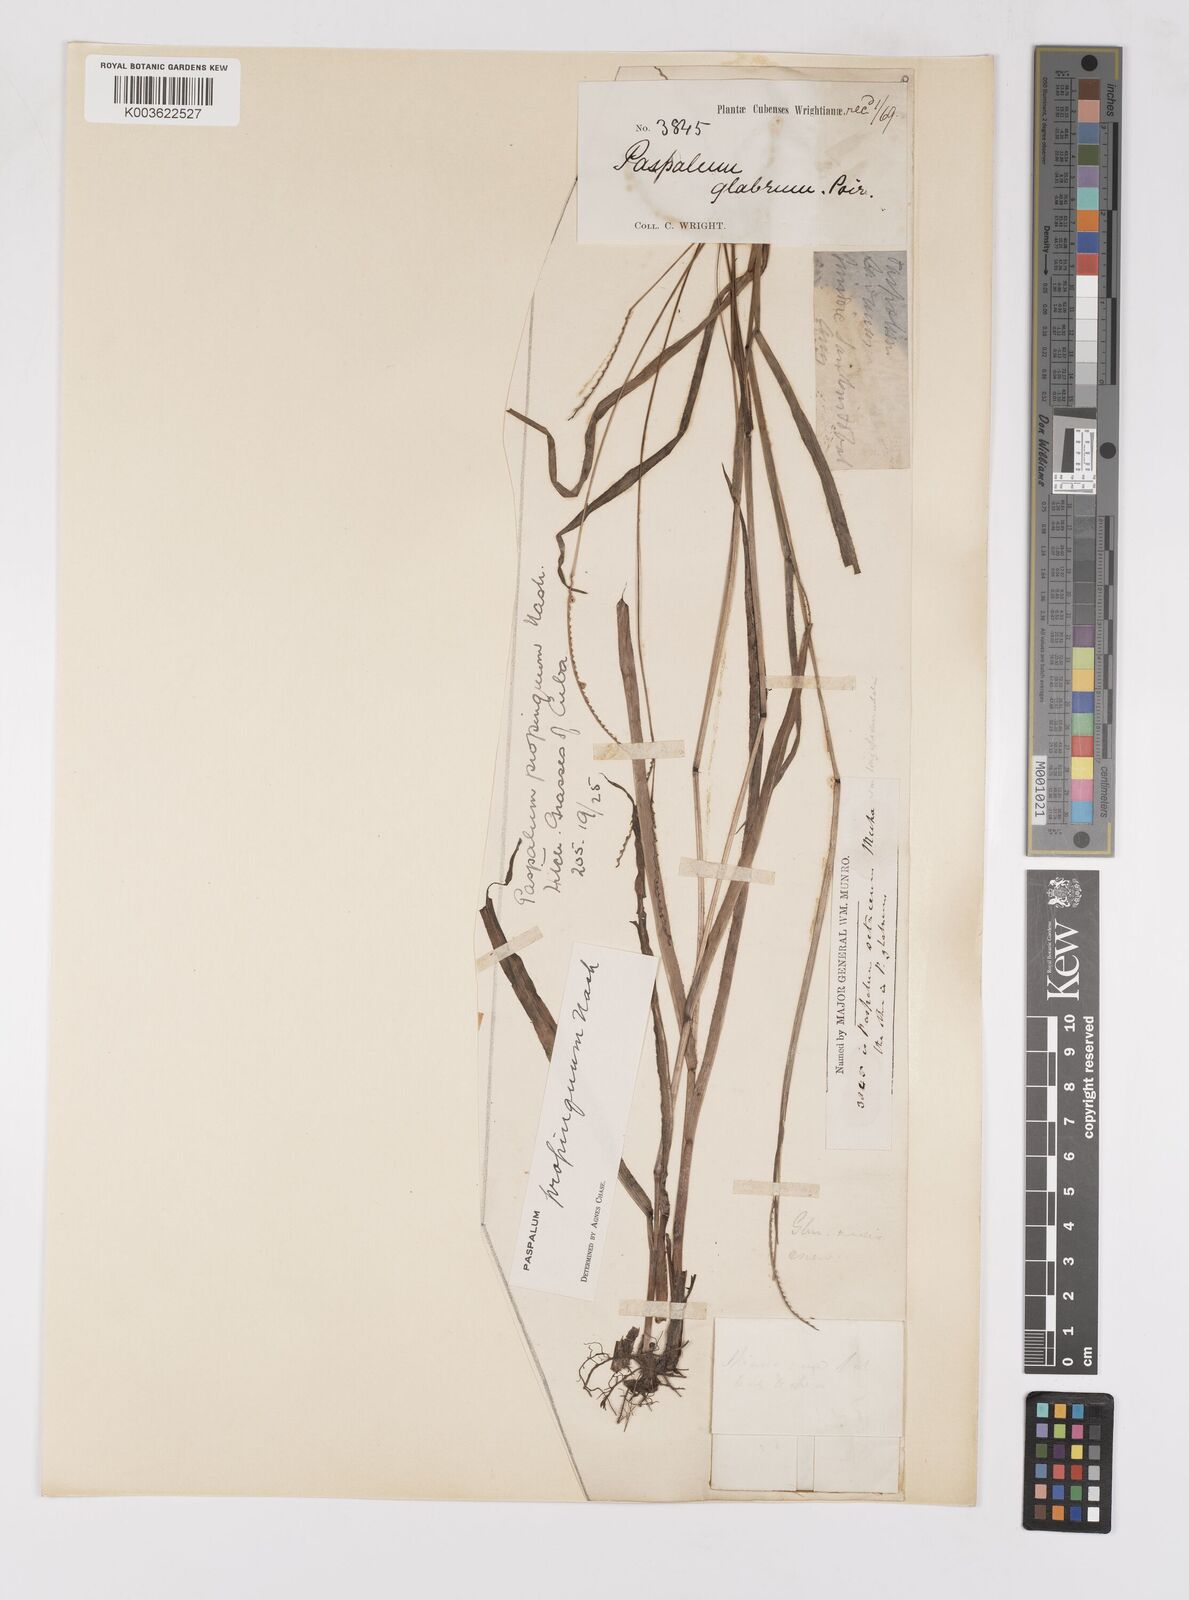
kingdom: Plantae
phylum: Tracheophyta
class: Liliopsida
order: Poales
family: Poaceae
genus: Paspalum
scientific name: Paspalum setaceum
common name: Slender paspalum
